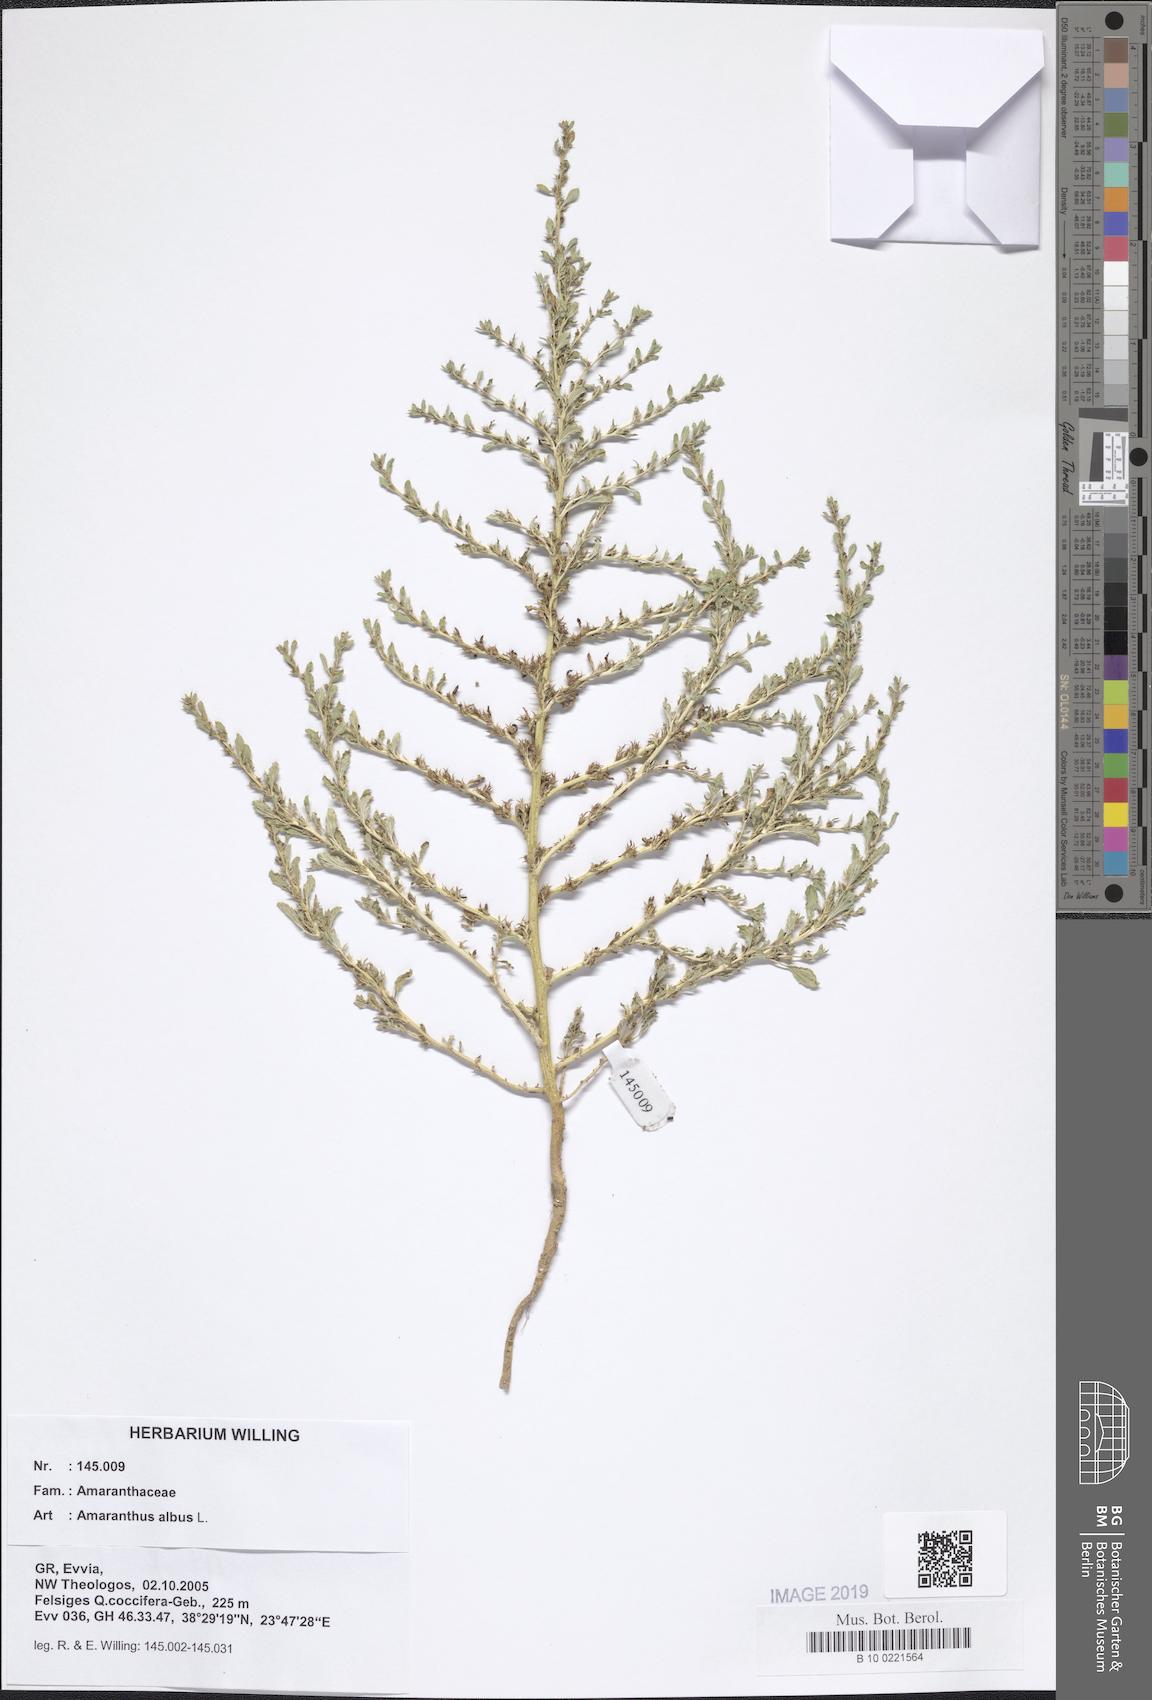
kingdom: Plantae
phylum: Tracheophyta
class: Magnoliopsida
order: Caryophyllales
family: Amaranthaceae
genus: Amaranthus
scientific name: Amaranthus albus
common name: White pigweed
